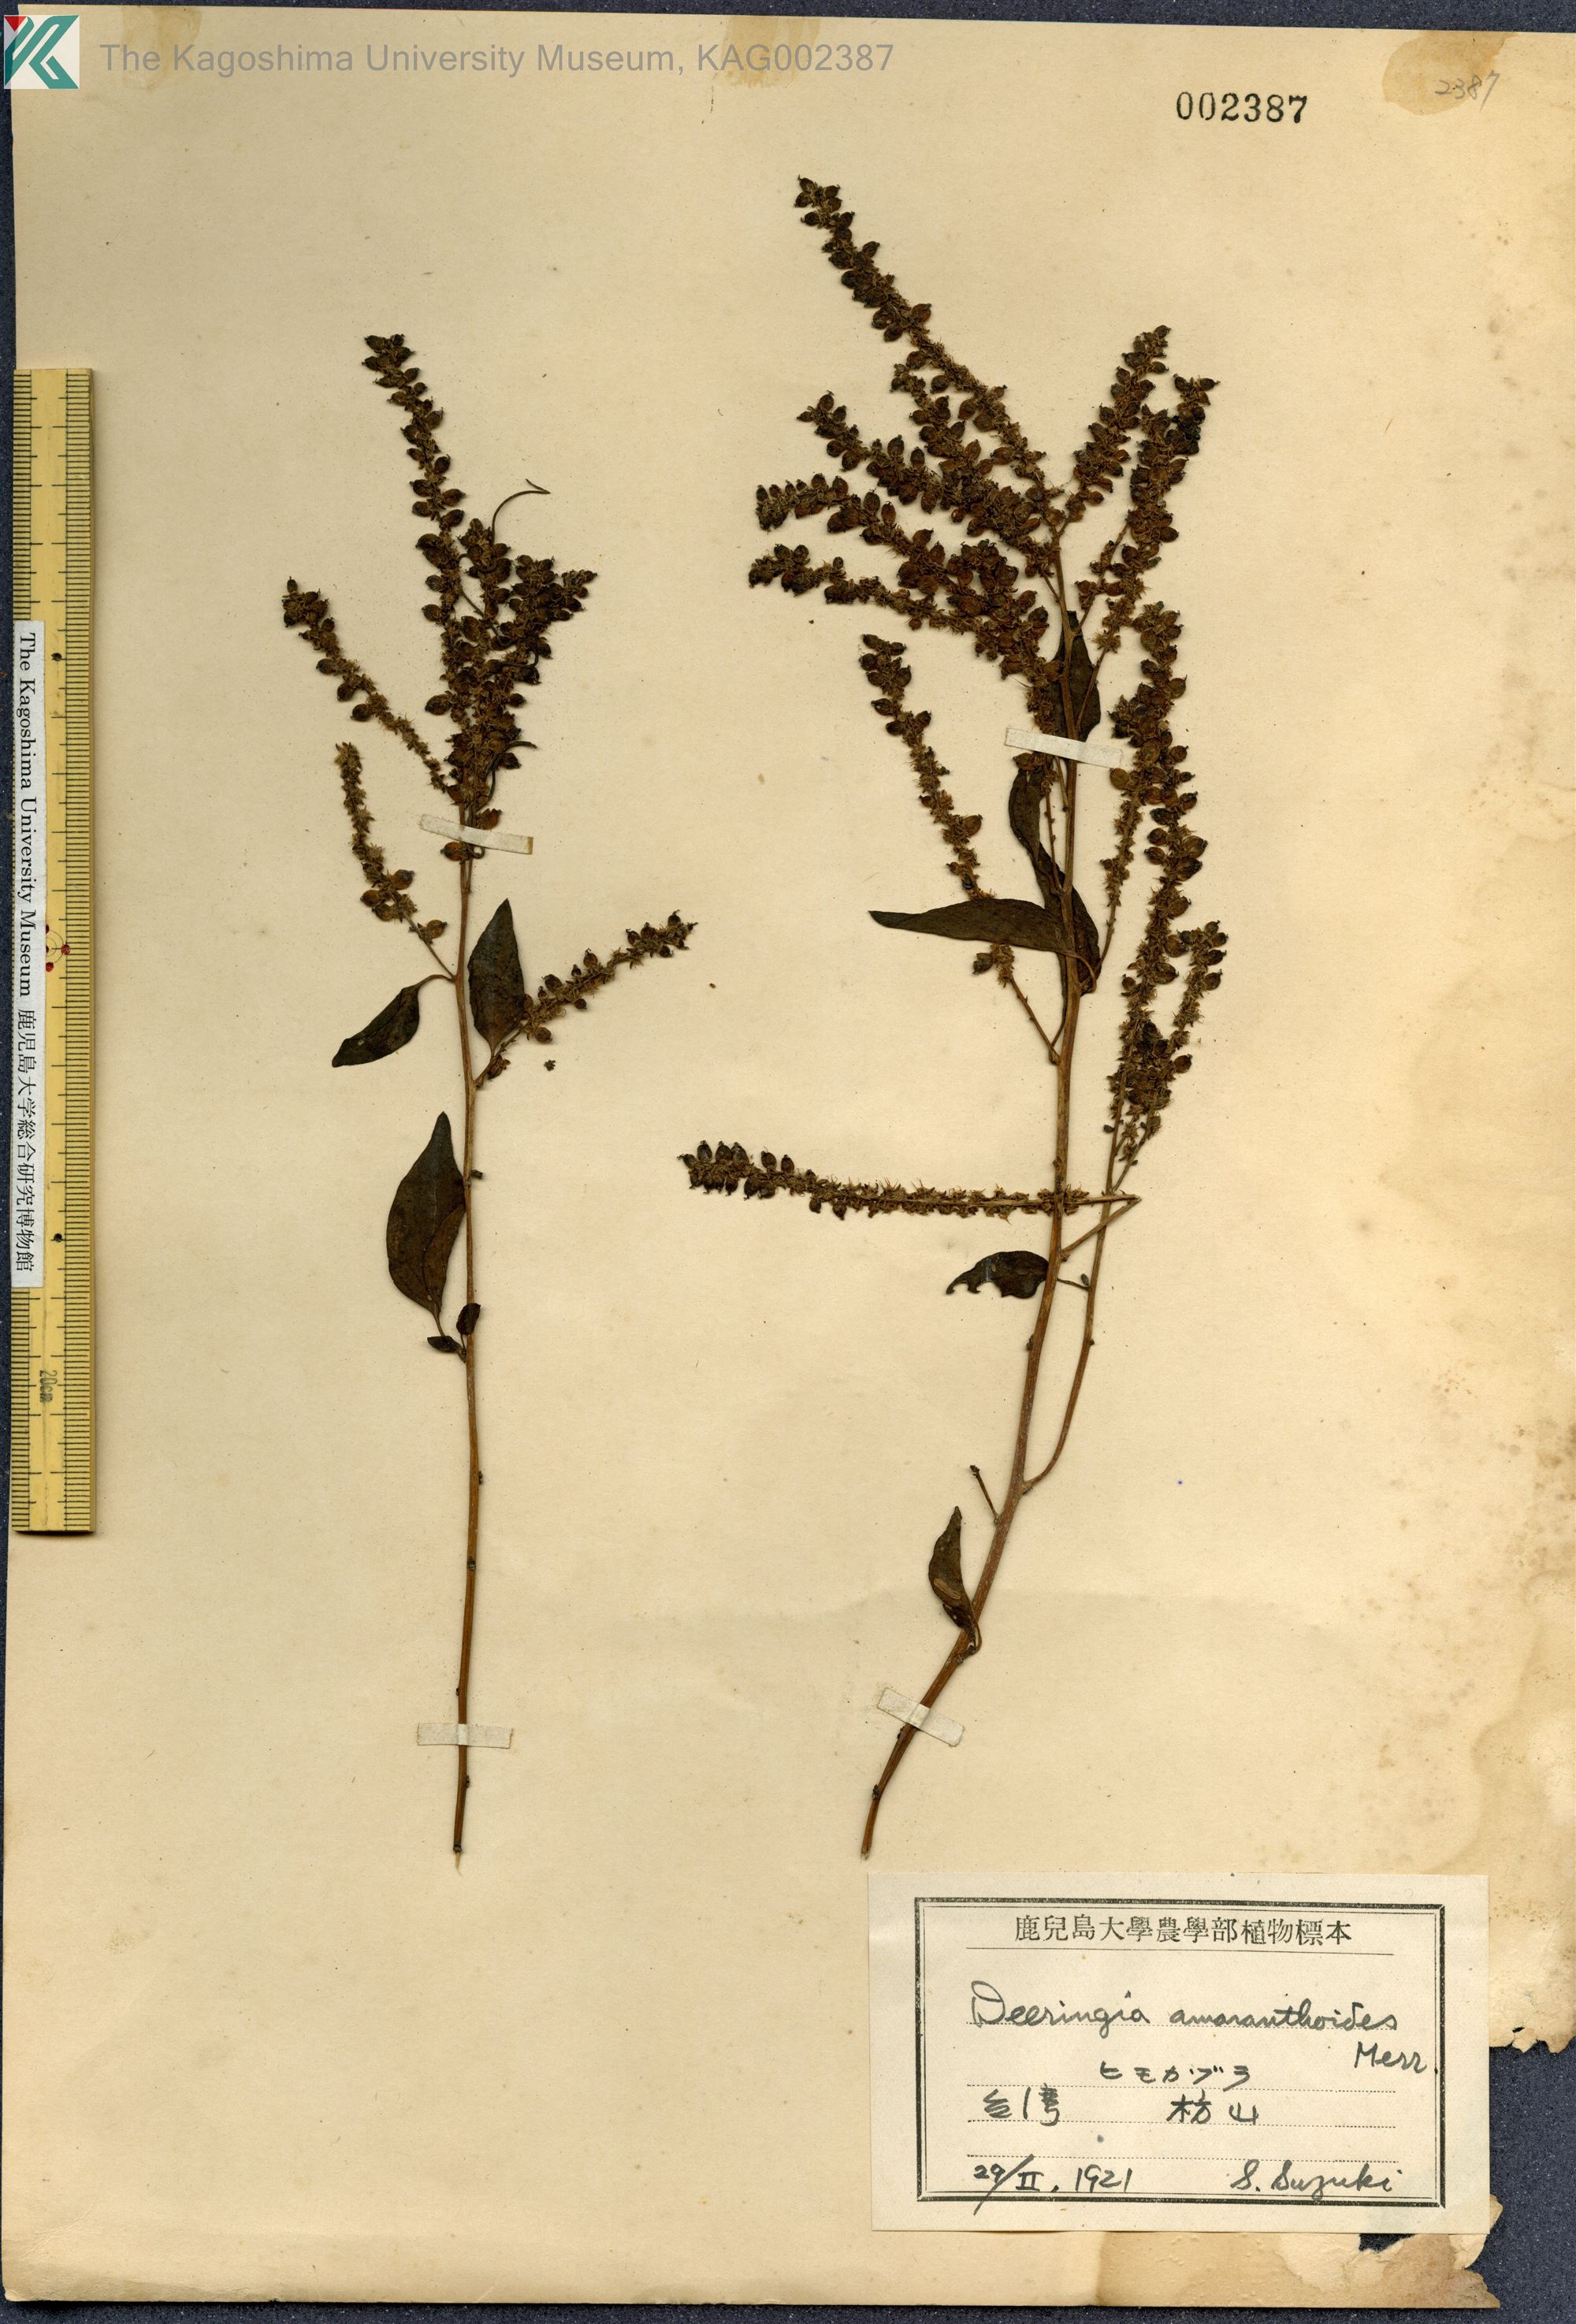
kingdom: Plantae
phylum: Tracheophyta
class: Magnoliopsida
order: Caryophyllales
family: Amaranthaceae
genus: Deeringia
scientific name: Deeringia amaranthoides
